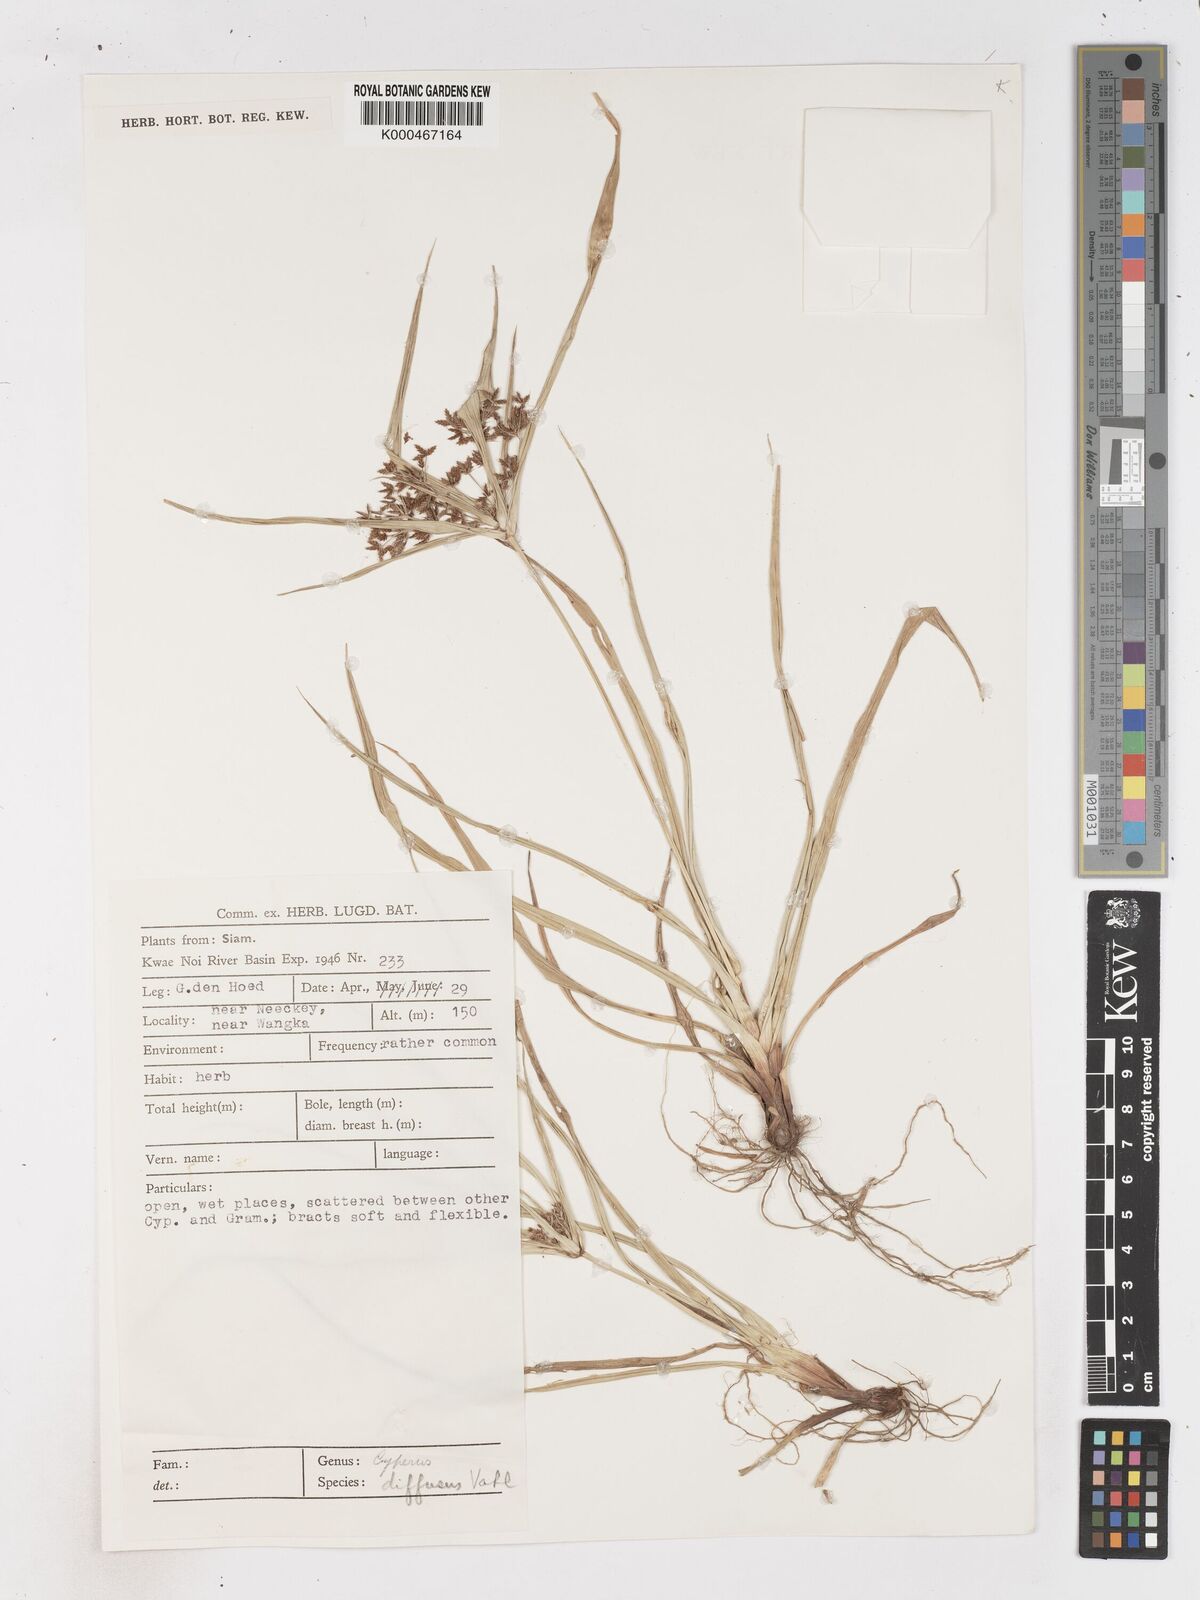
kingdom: Plantae
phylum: Tracheophyta
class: Liliopsida
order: Poales
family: Cyperaceae
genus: Cyperus
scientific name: Cyperus diffusus
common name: Dwarf umbrella grass
